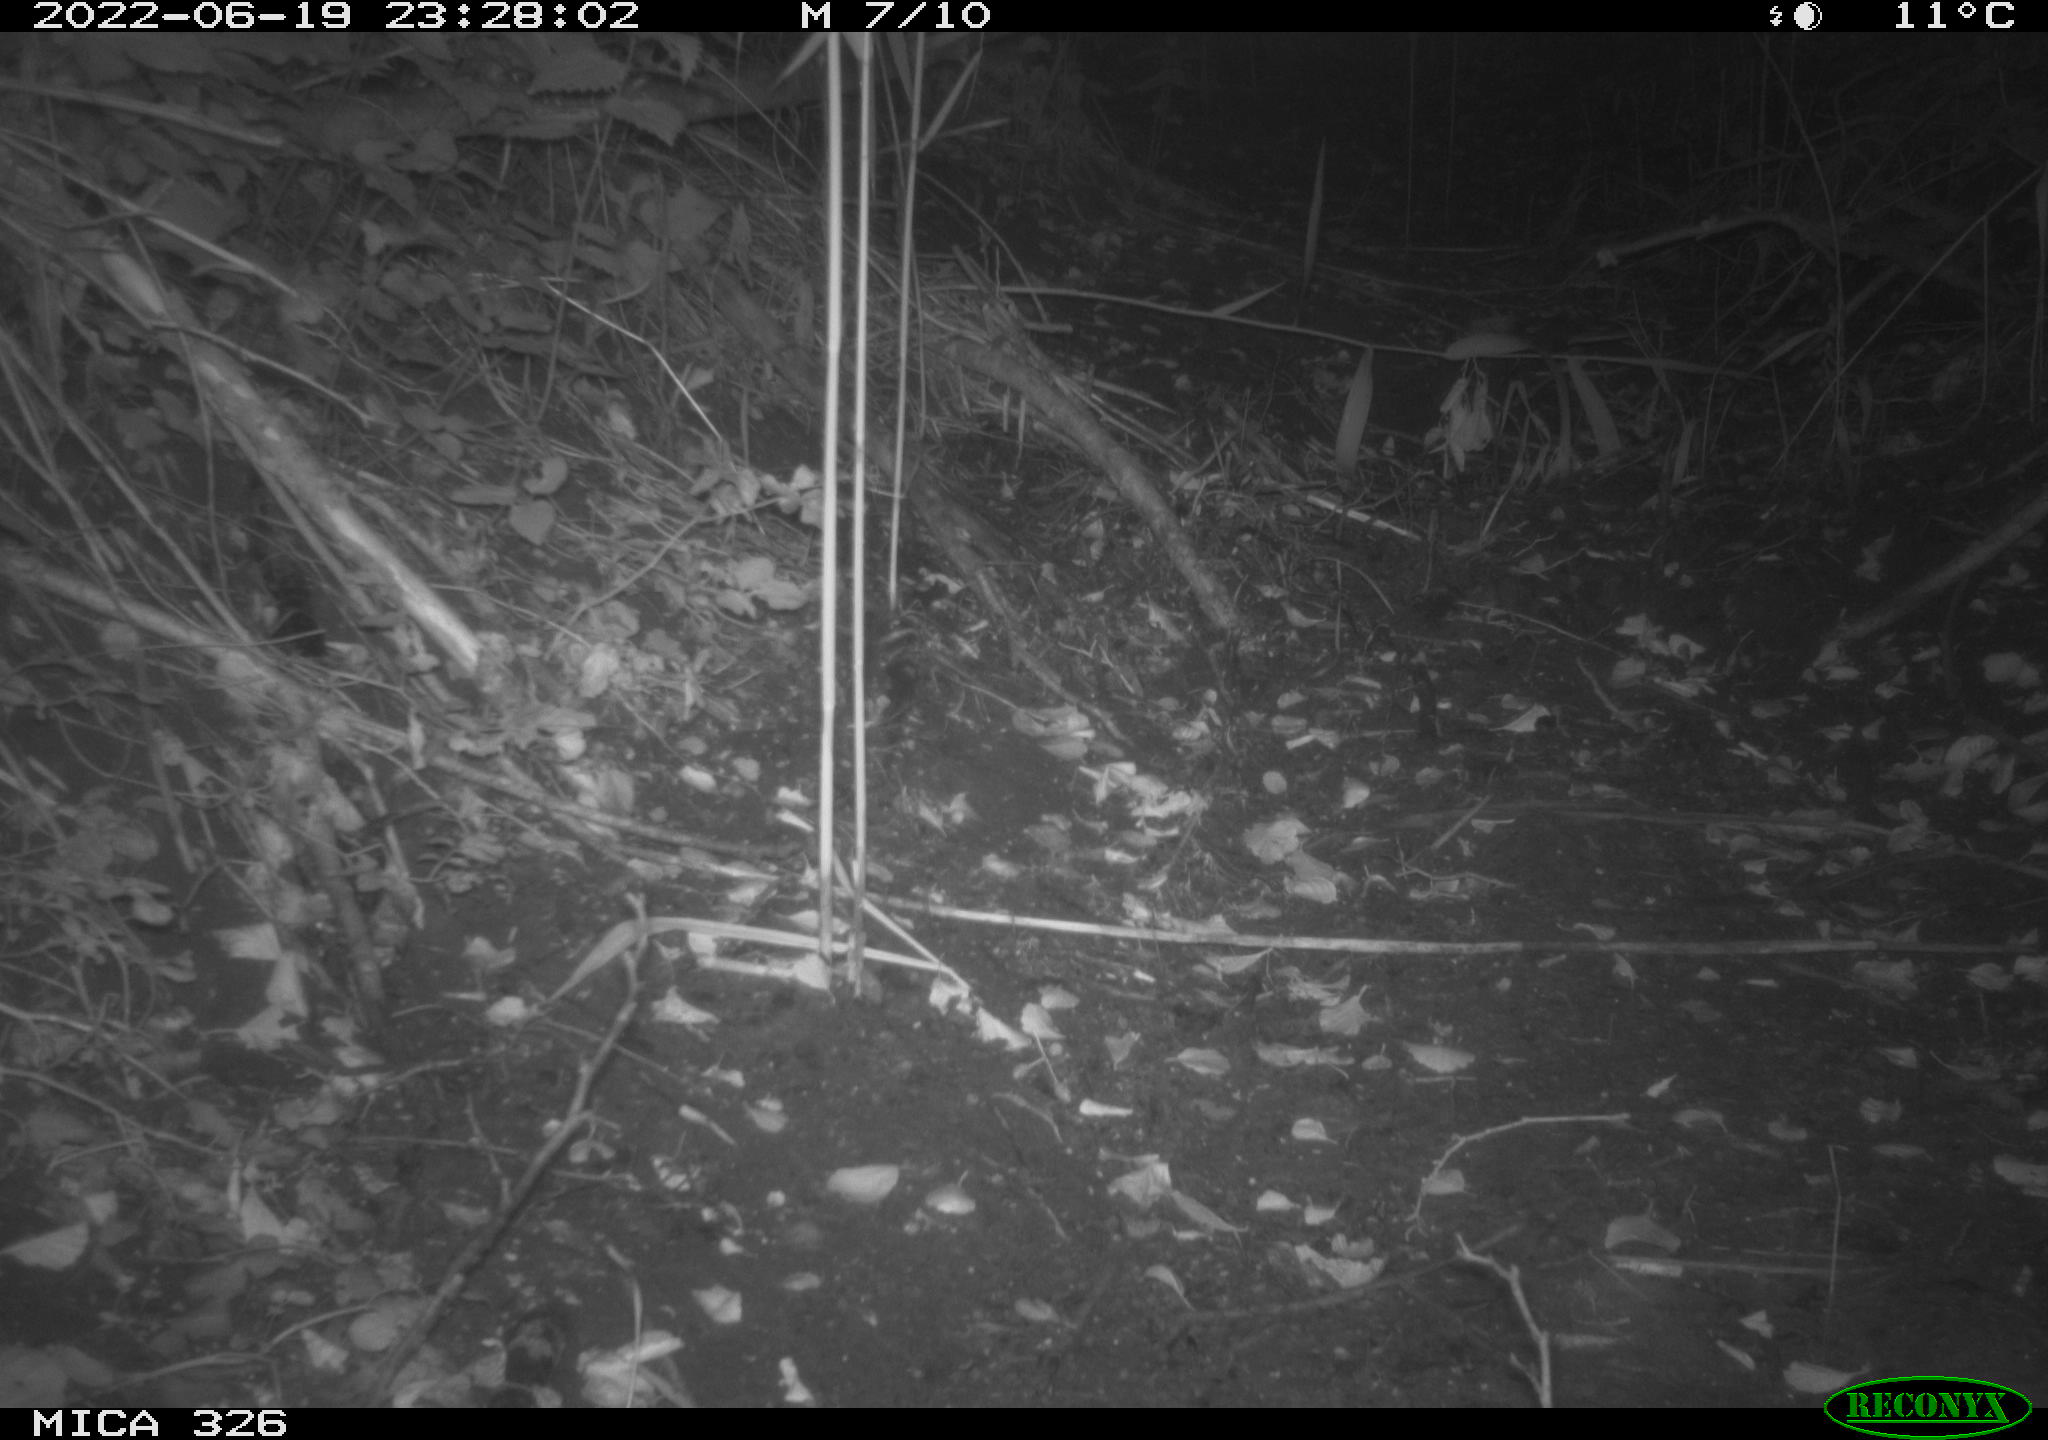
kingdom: Animalia
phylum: Chordata
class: Mammalia
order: Rodentia
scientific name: Rodentia
